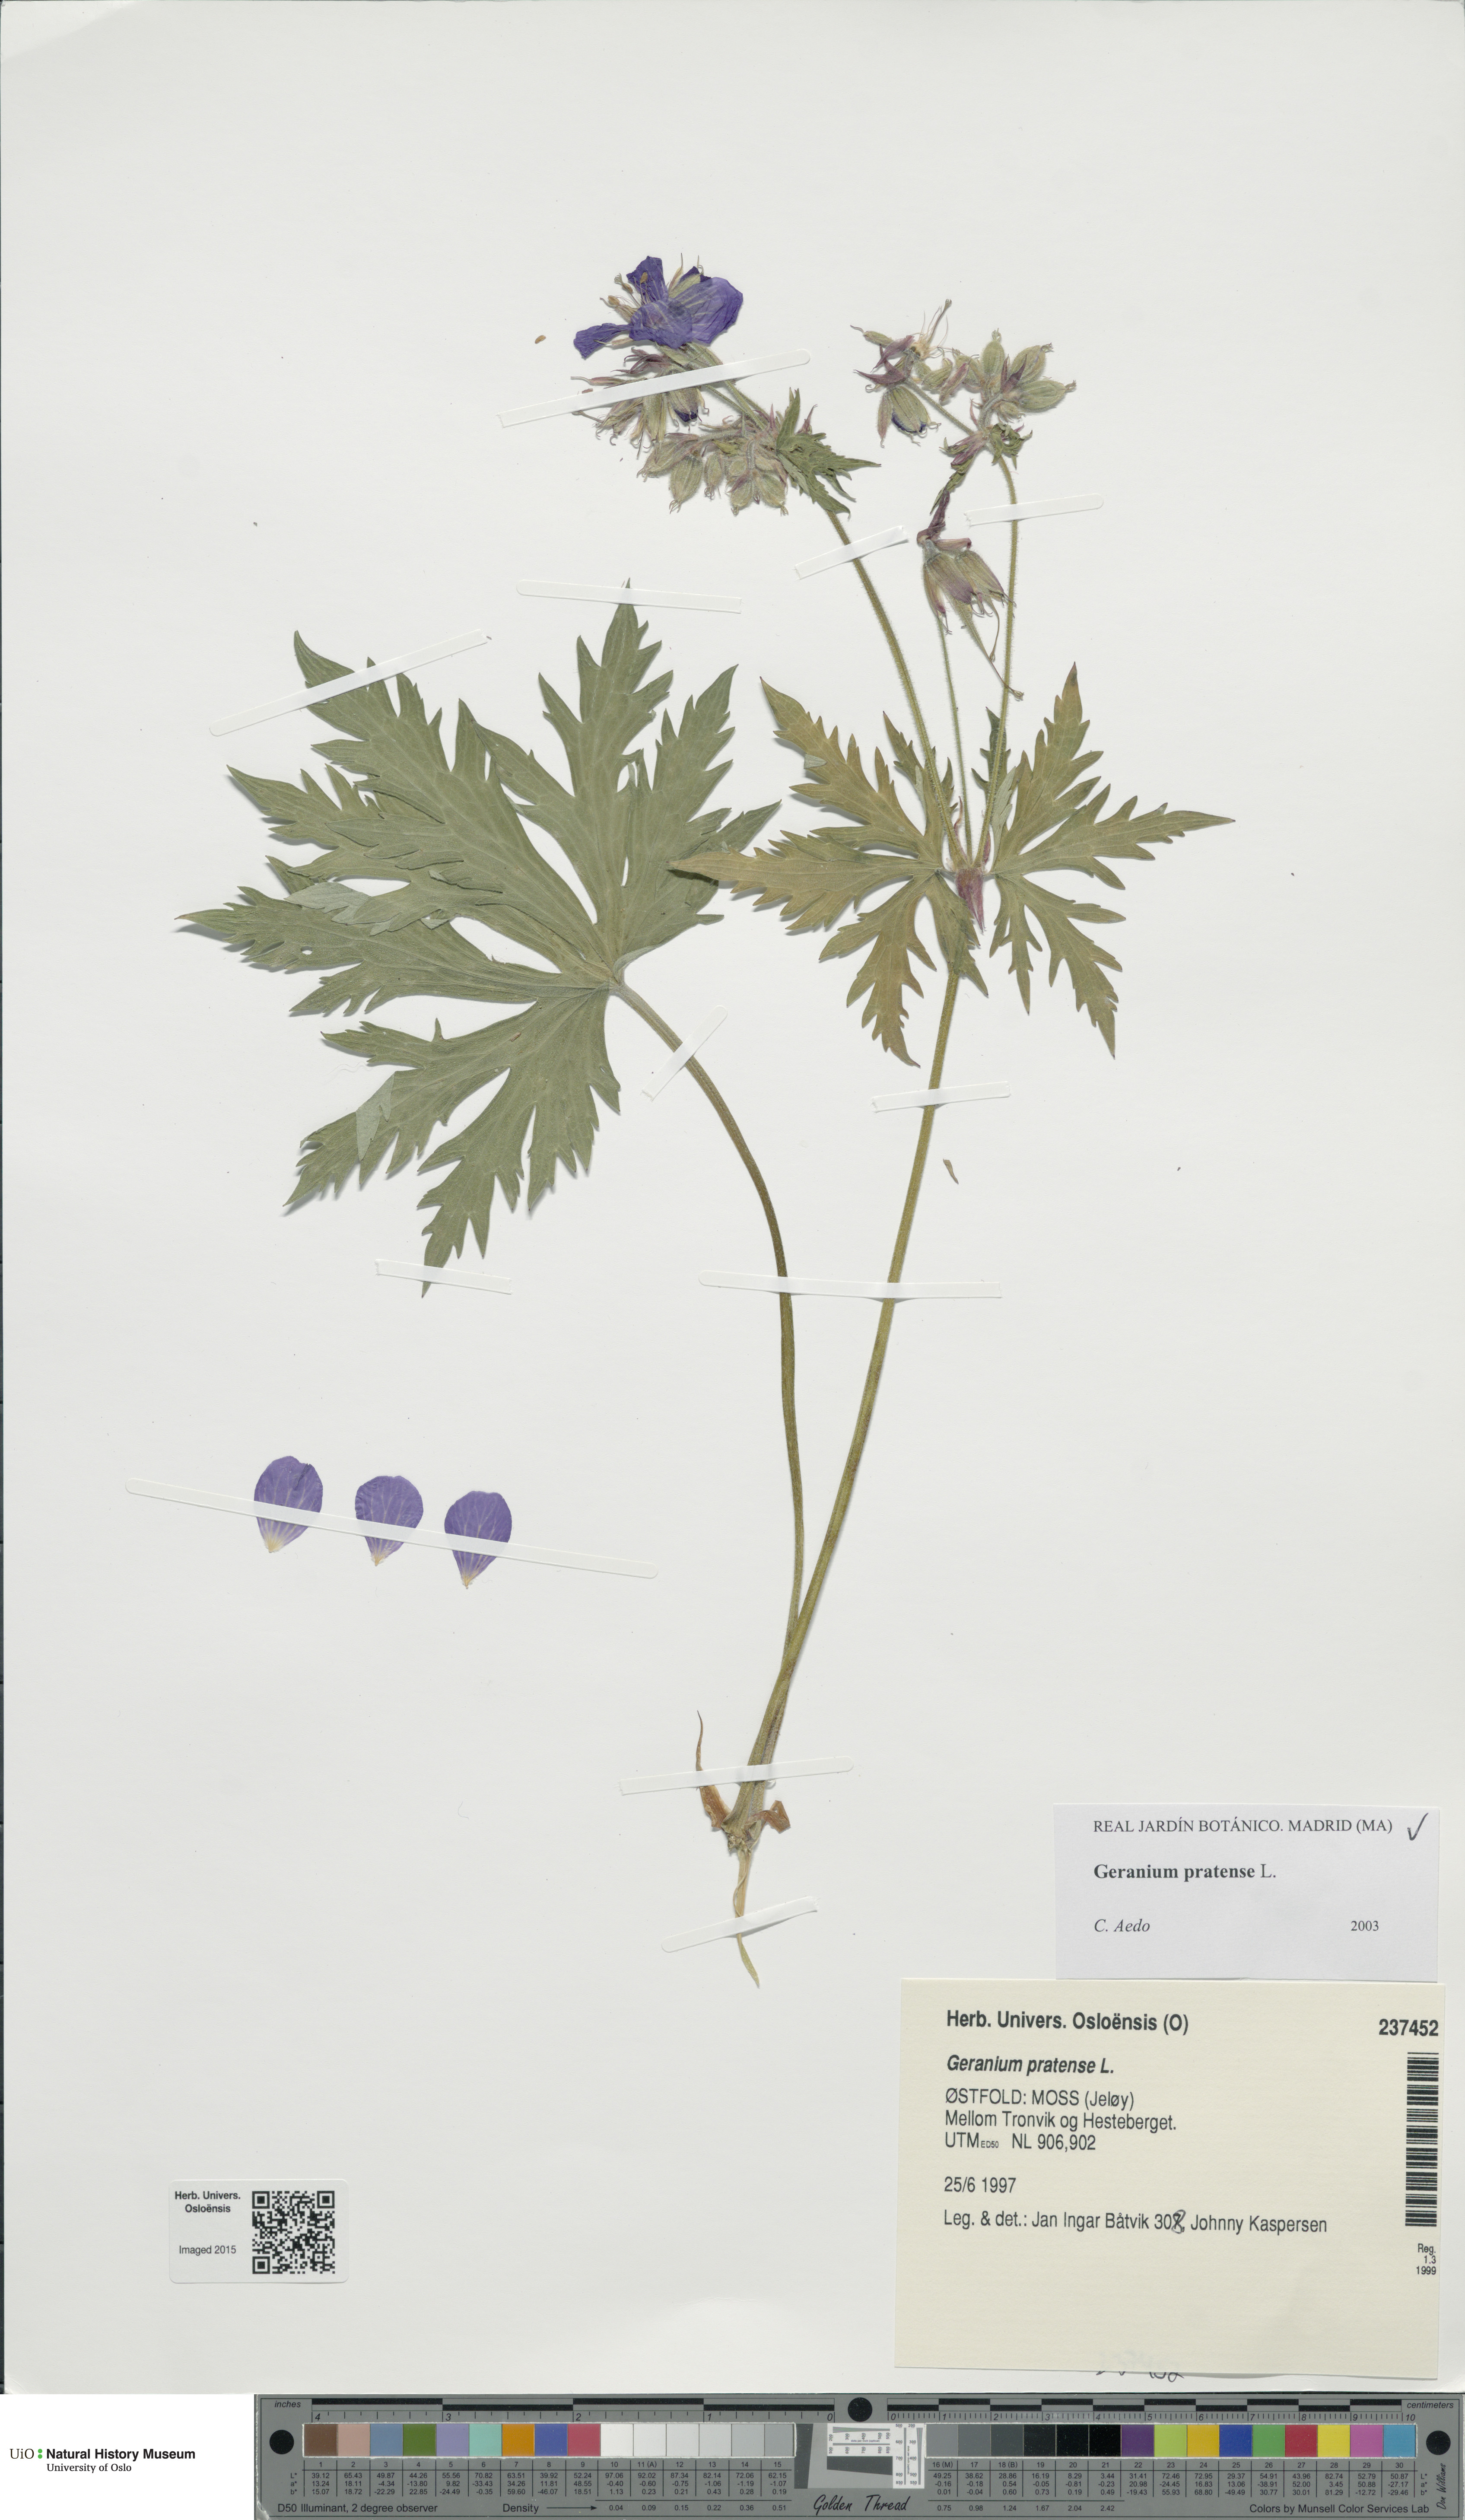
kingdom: Plantae
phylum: Tracheophyta
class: Magnoliopsida
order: Geraniales
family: Geraniaceae
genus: Geranium
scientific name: Geranium pratense
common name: Meadow crane's-bill
